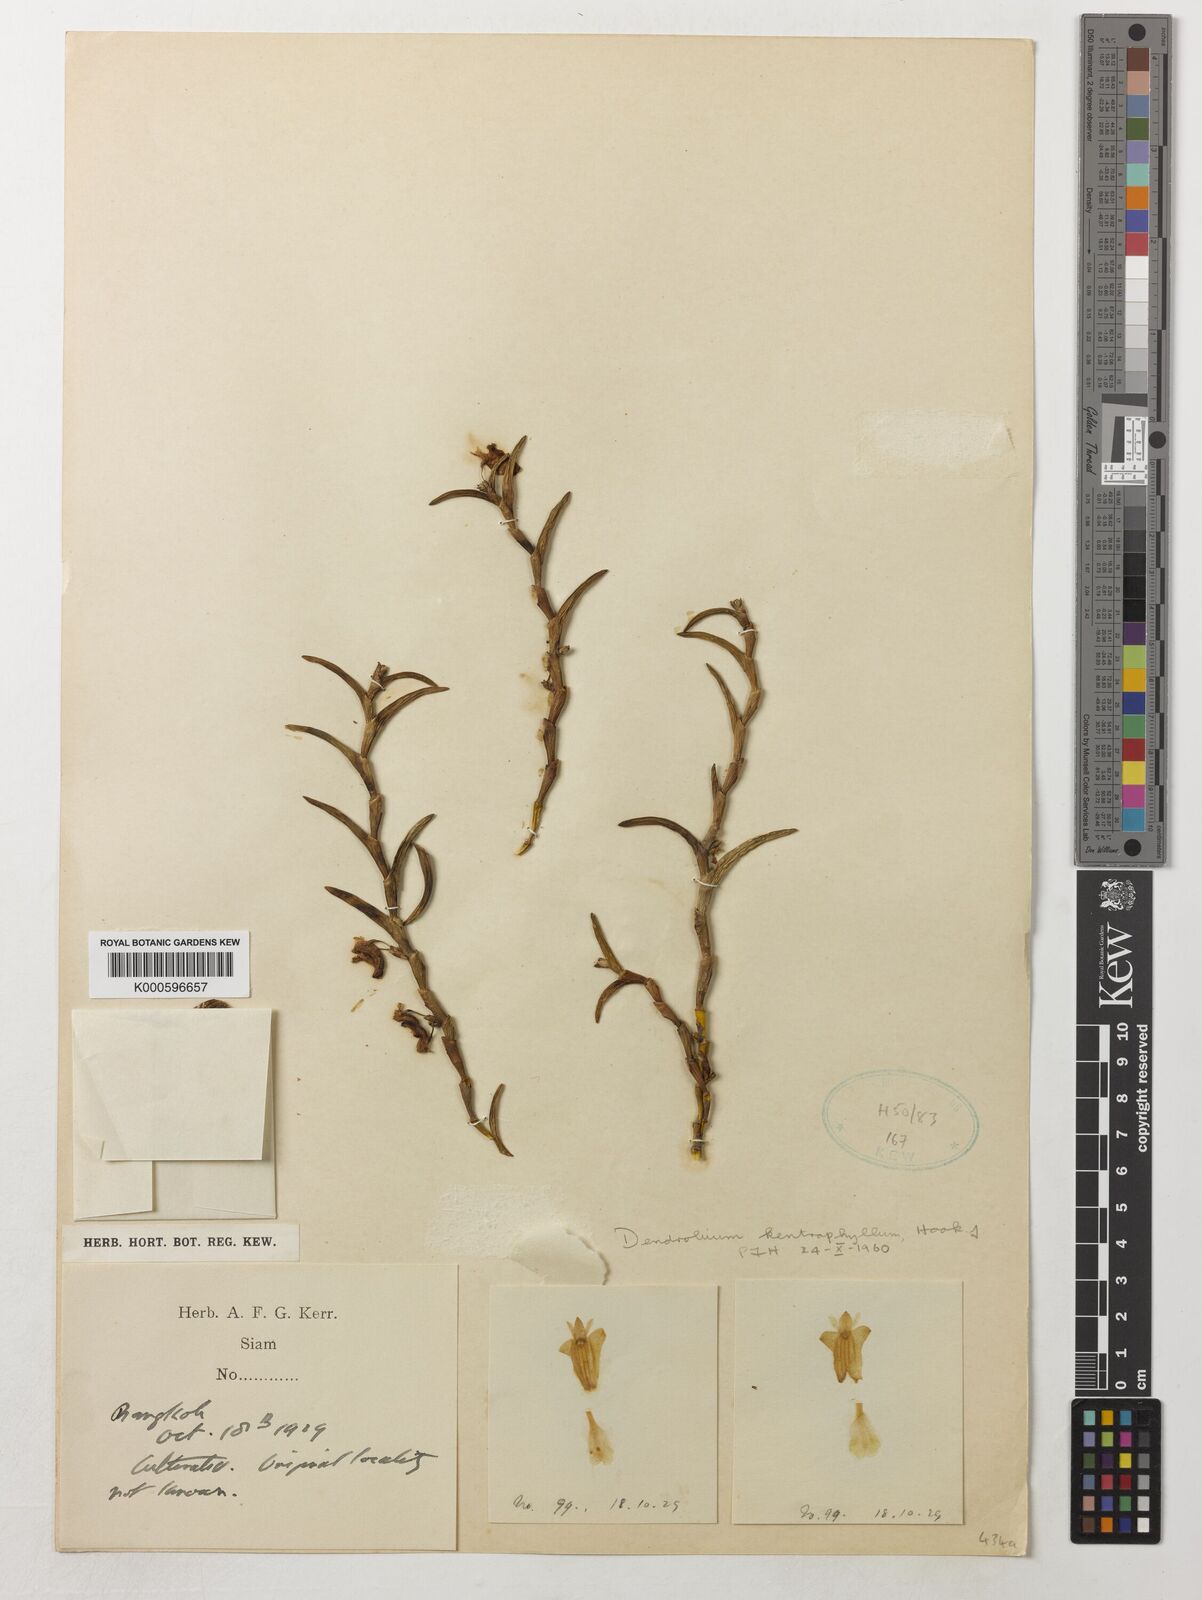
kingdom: Plantae
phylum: Tracheophyta
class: Liliopsida
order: Asparagales
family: Orchidaceae
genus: Dendrobium
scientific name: Dendrobium kentrophyllum
